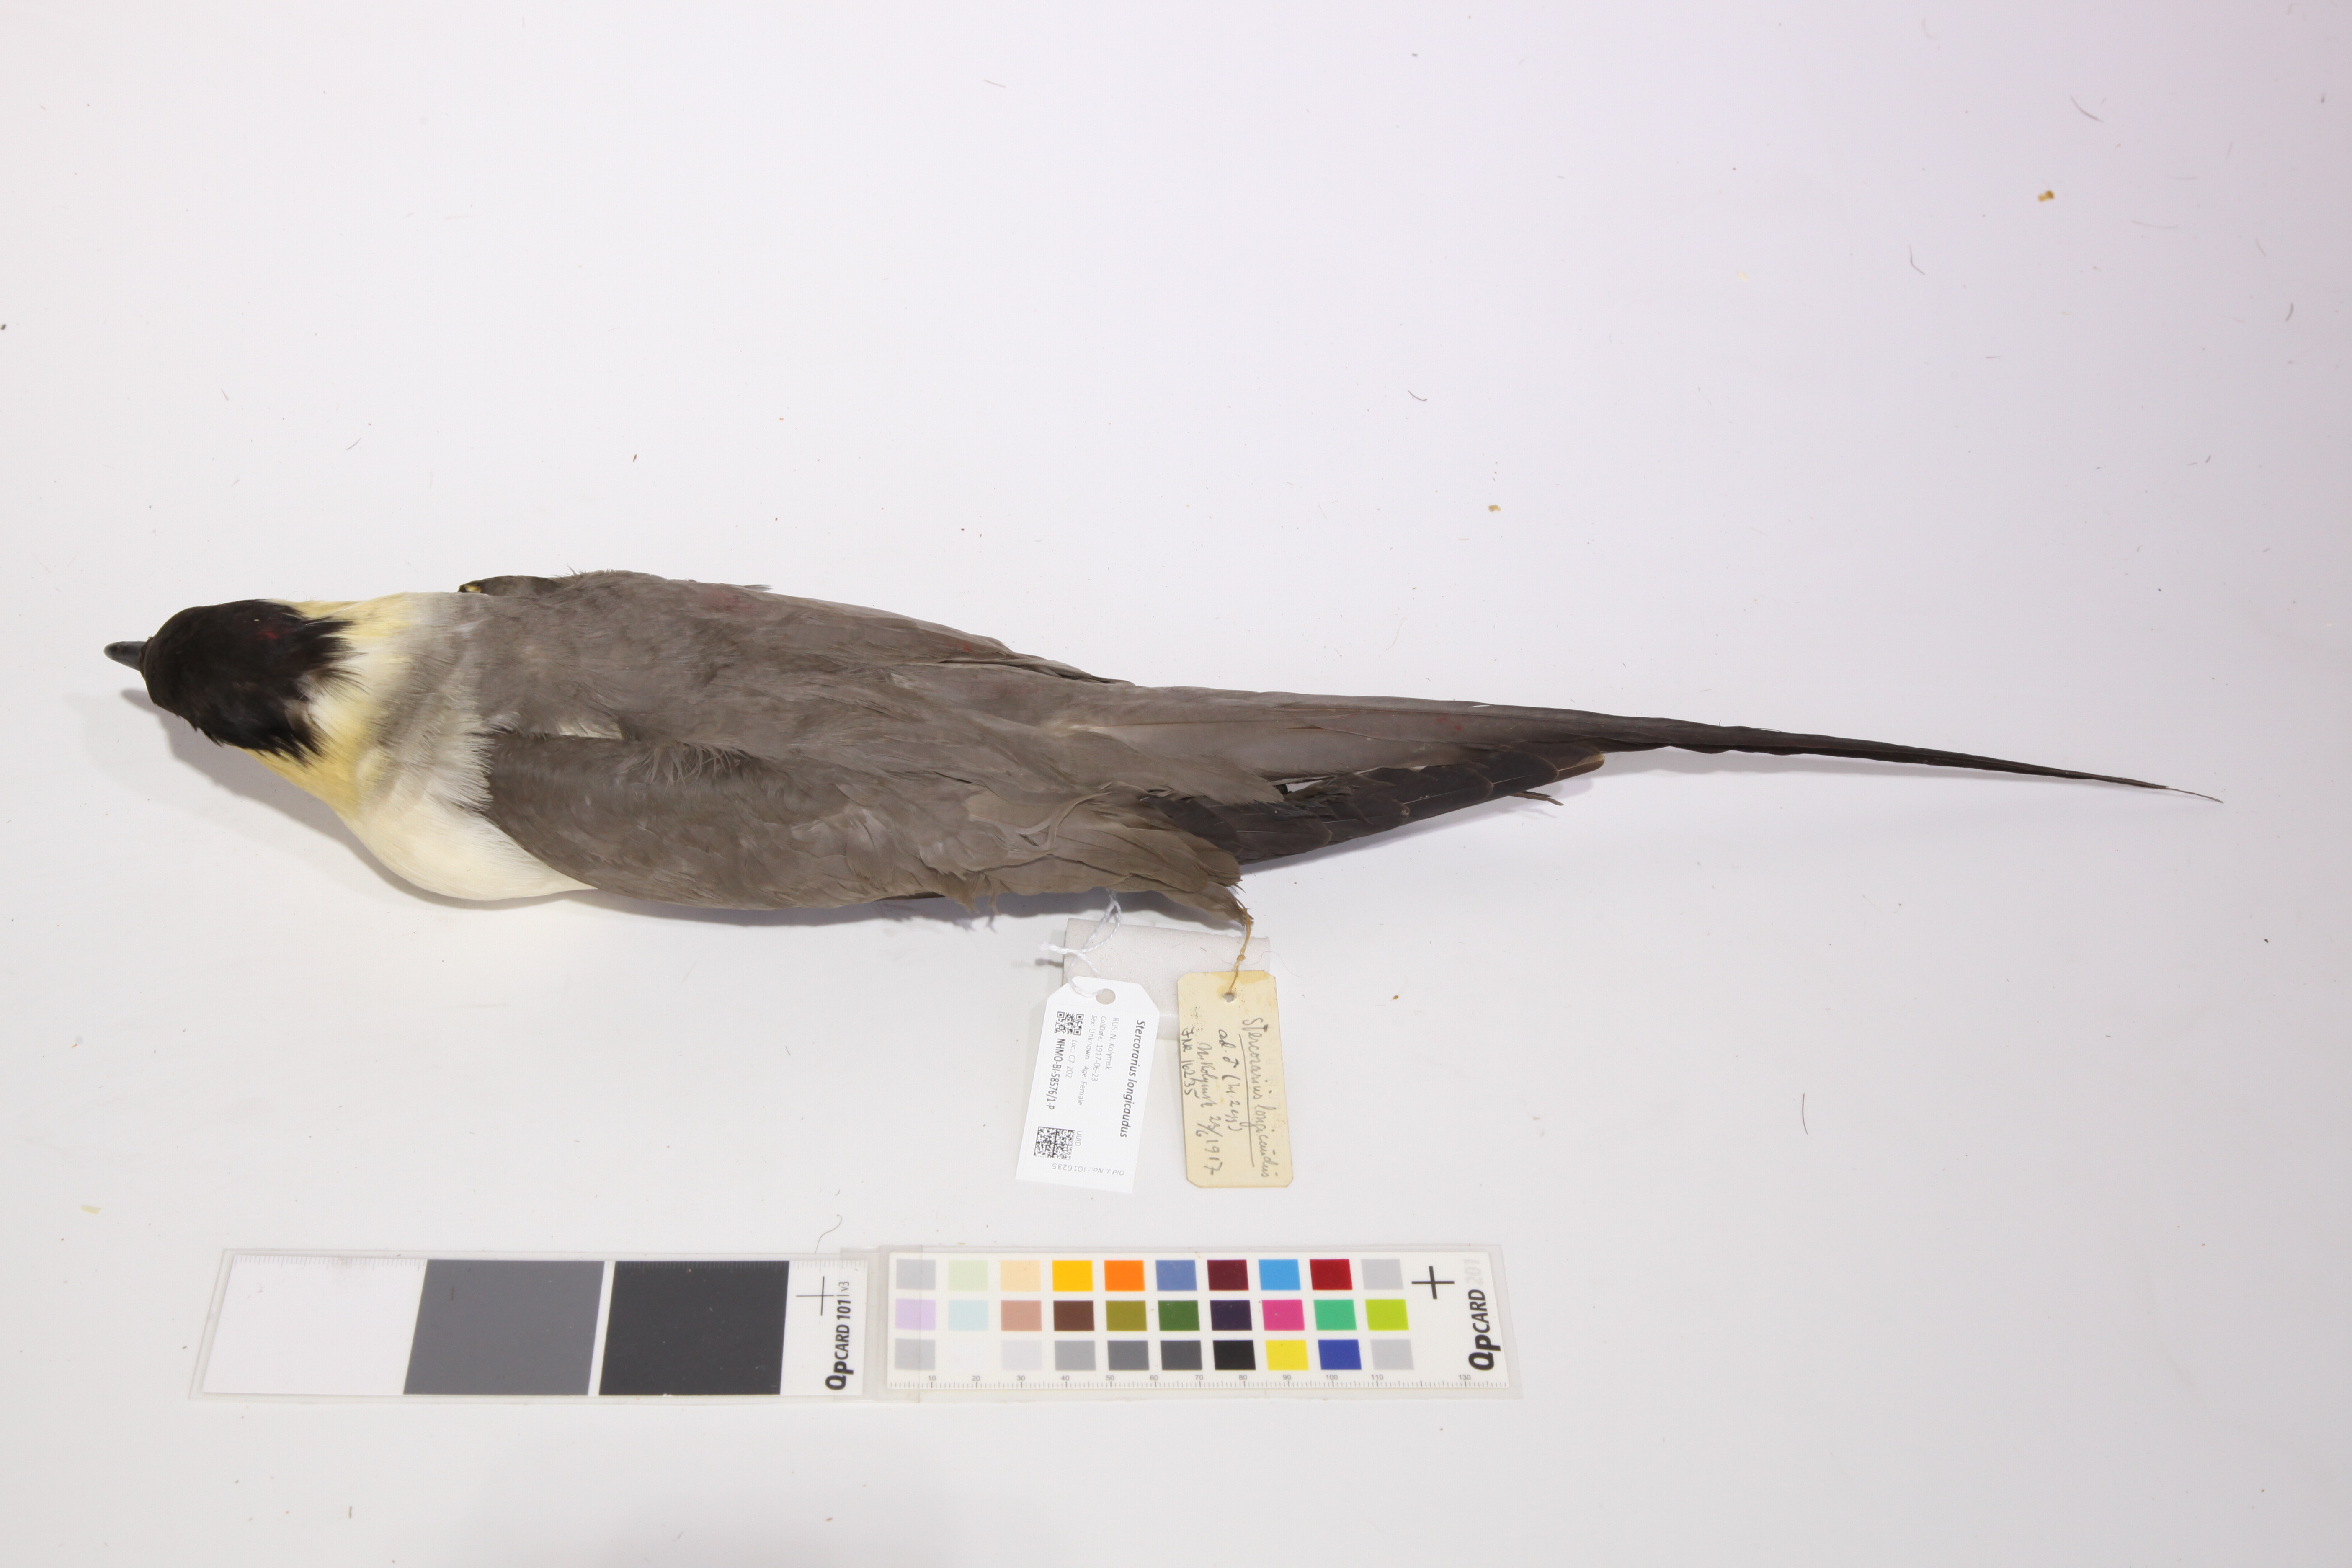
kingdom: Animalia
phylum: Chordata
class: Aves
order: Charadriiformes
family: Stercorariidae
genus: Stercorarius
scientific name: Stercorarius longicaudus
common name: Long-tailed jaeger
